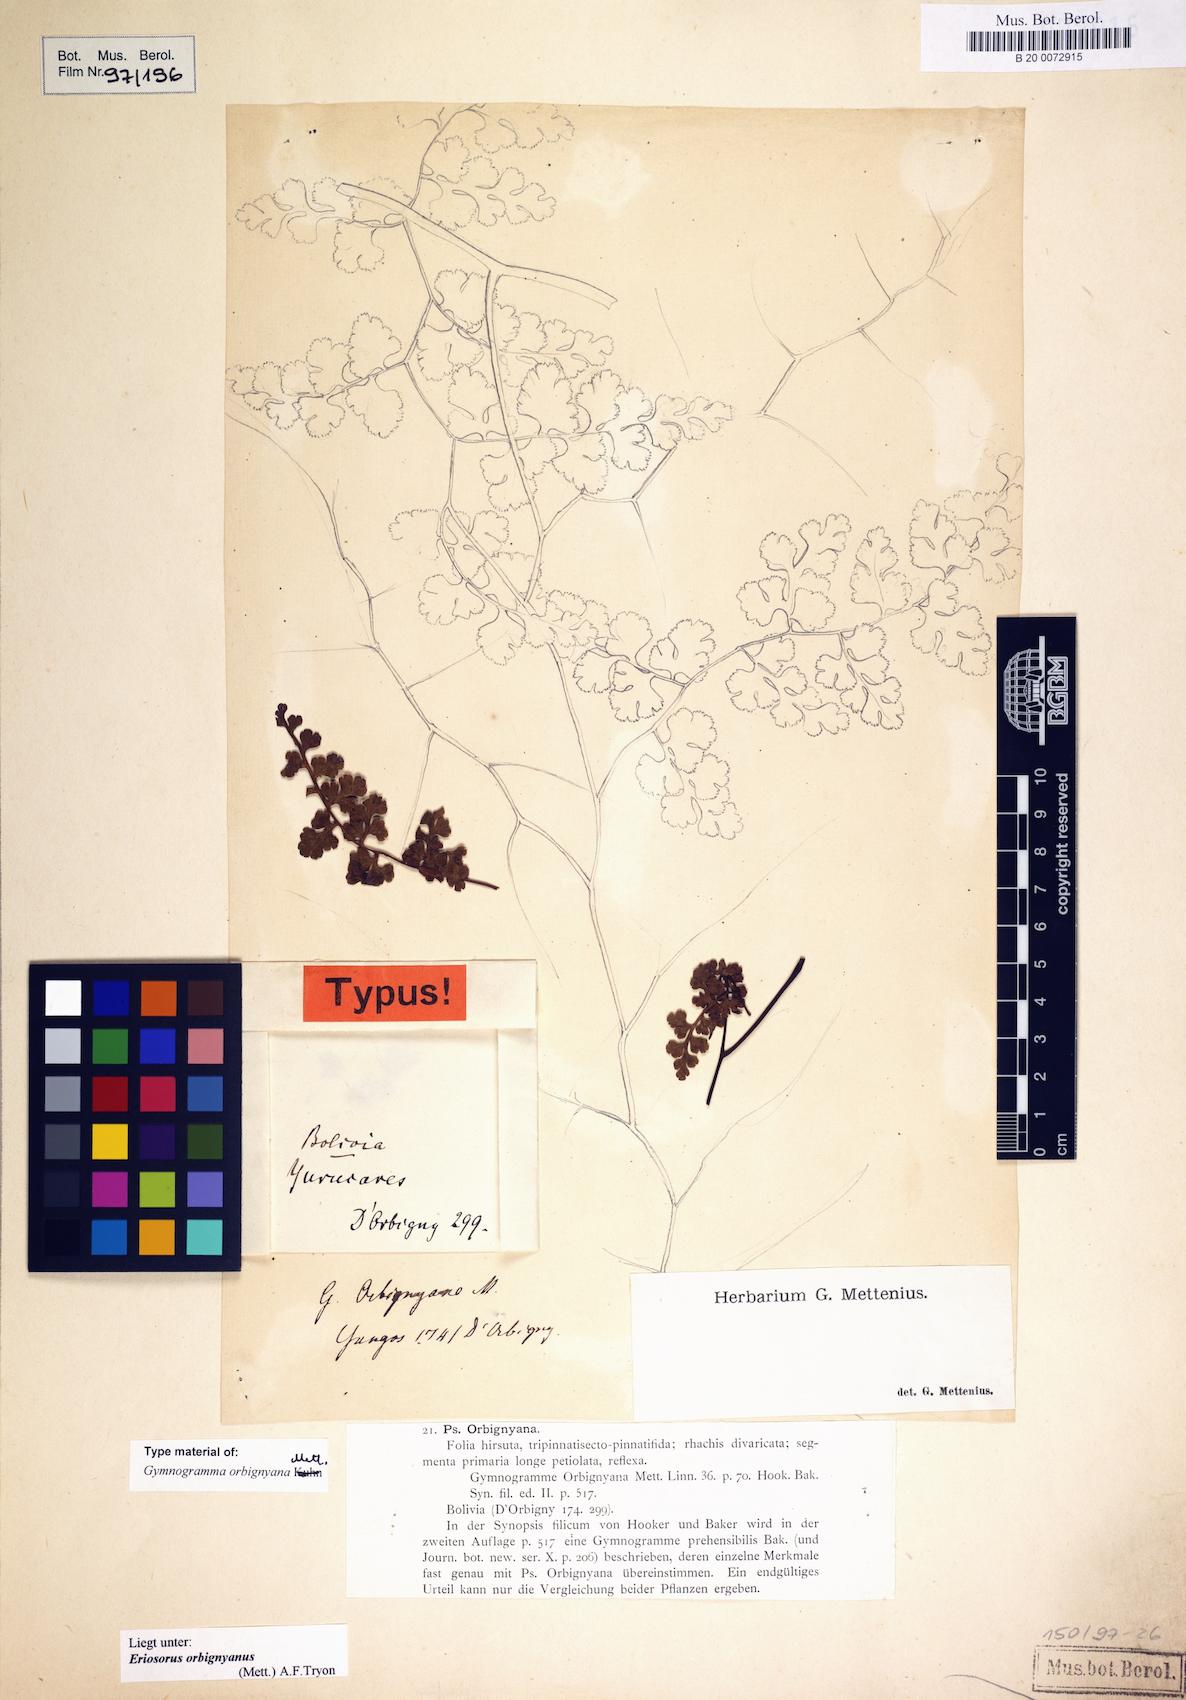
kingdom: Plantae
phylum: Tracheophyta
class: Polypodiopsida
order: Polypodiales
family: Pteridaceae
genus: Jamesonia
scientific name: Jamesonia orbignyana
